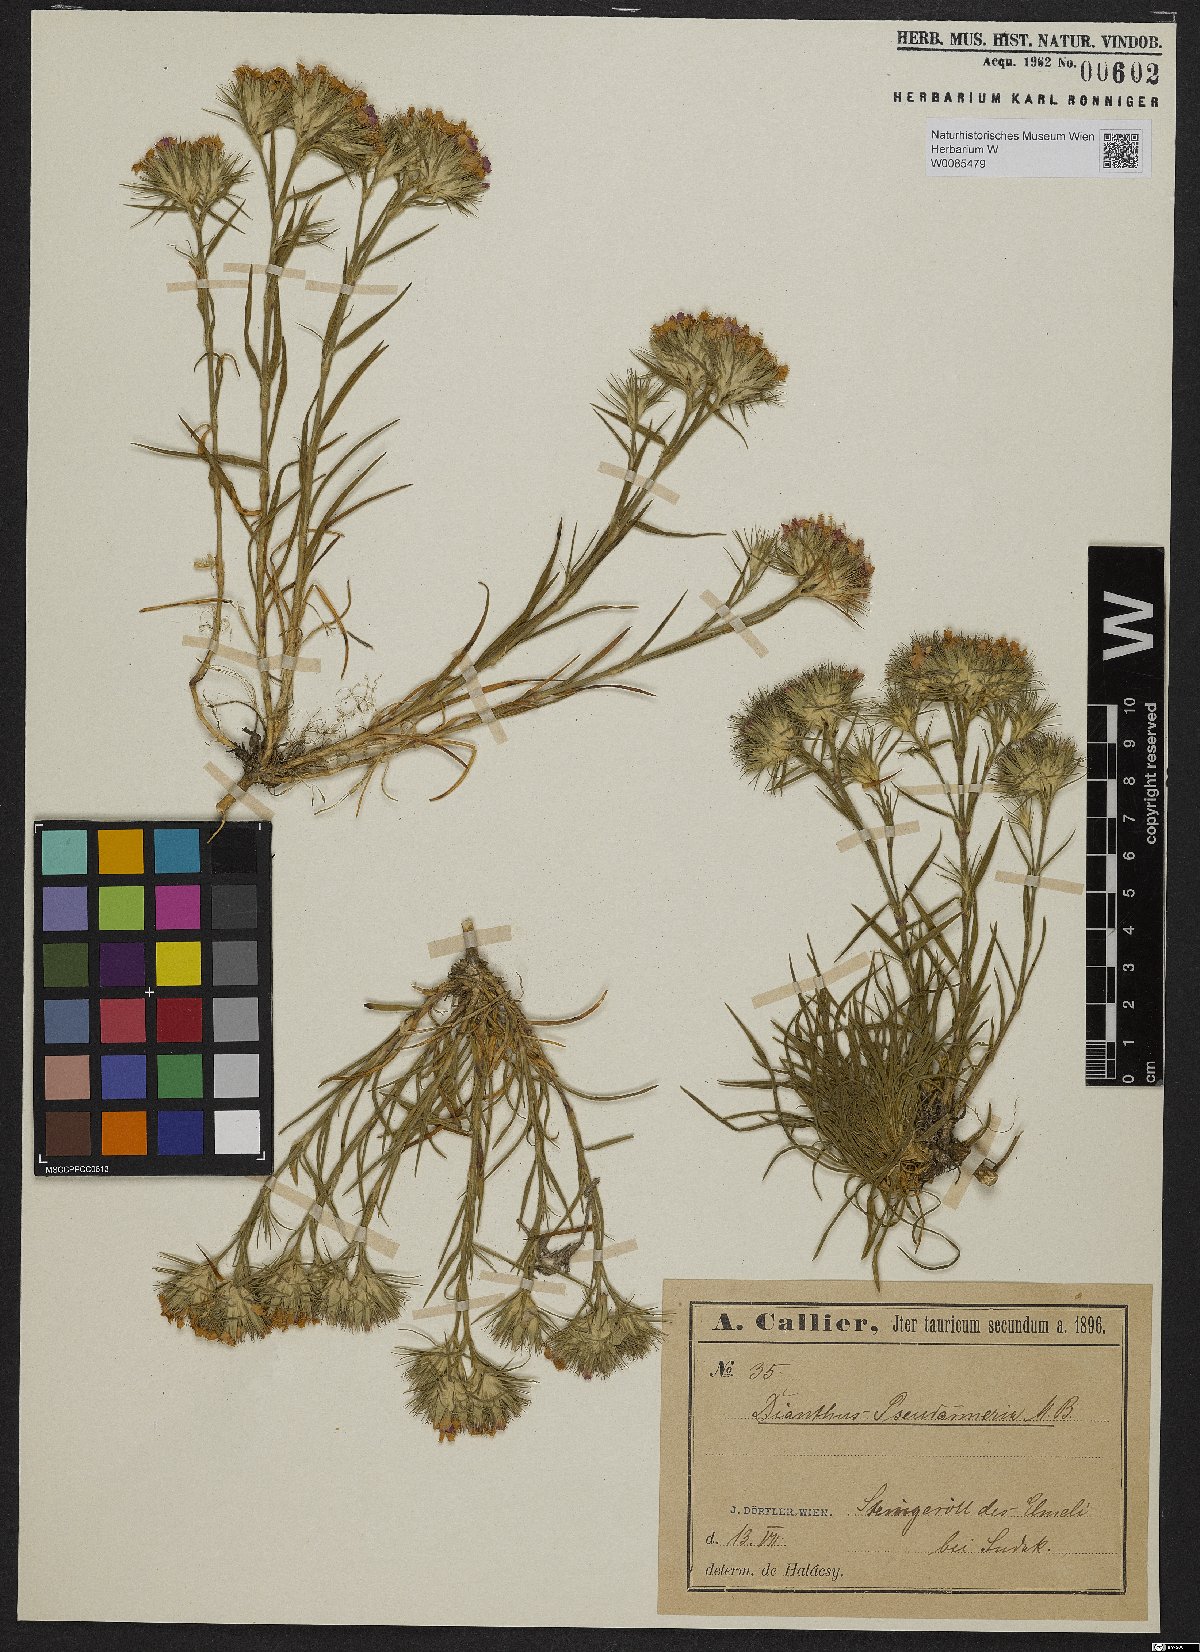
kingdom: Plantae
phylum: Tracheophyta
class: Magnoliopsida
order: Caryophyllales
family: Caryophyllaceae
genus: Dianthus
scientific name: Dianthus pseudarmeria
